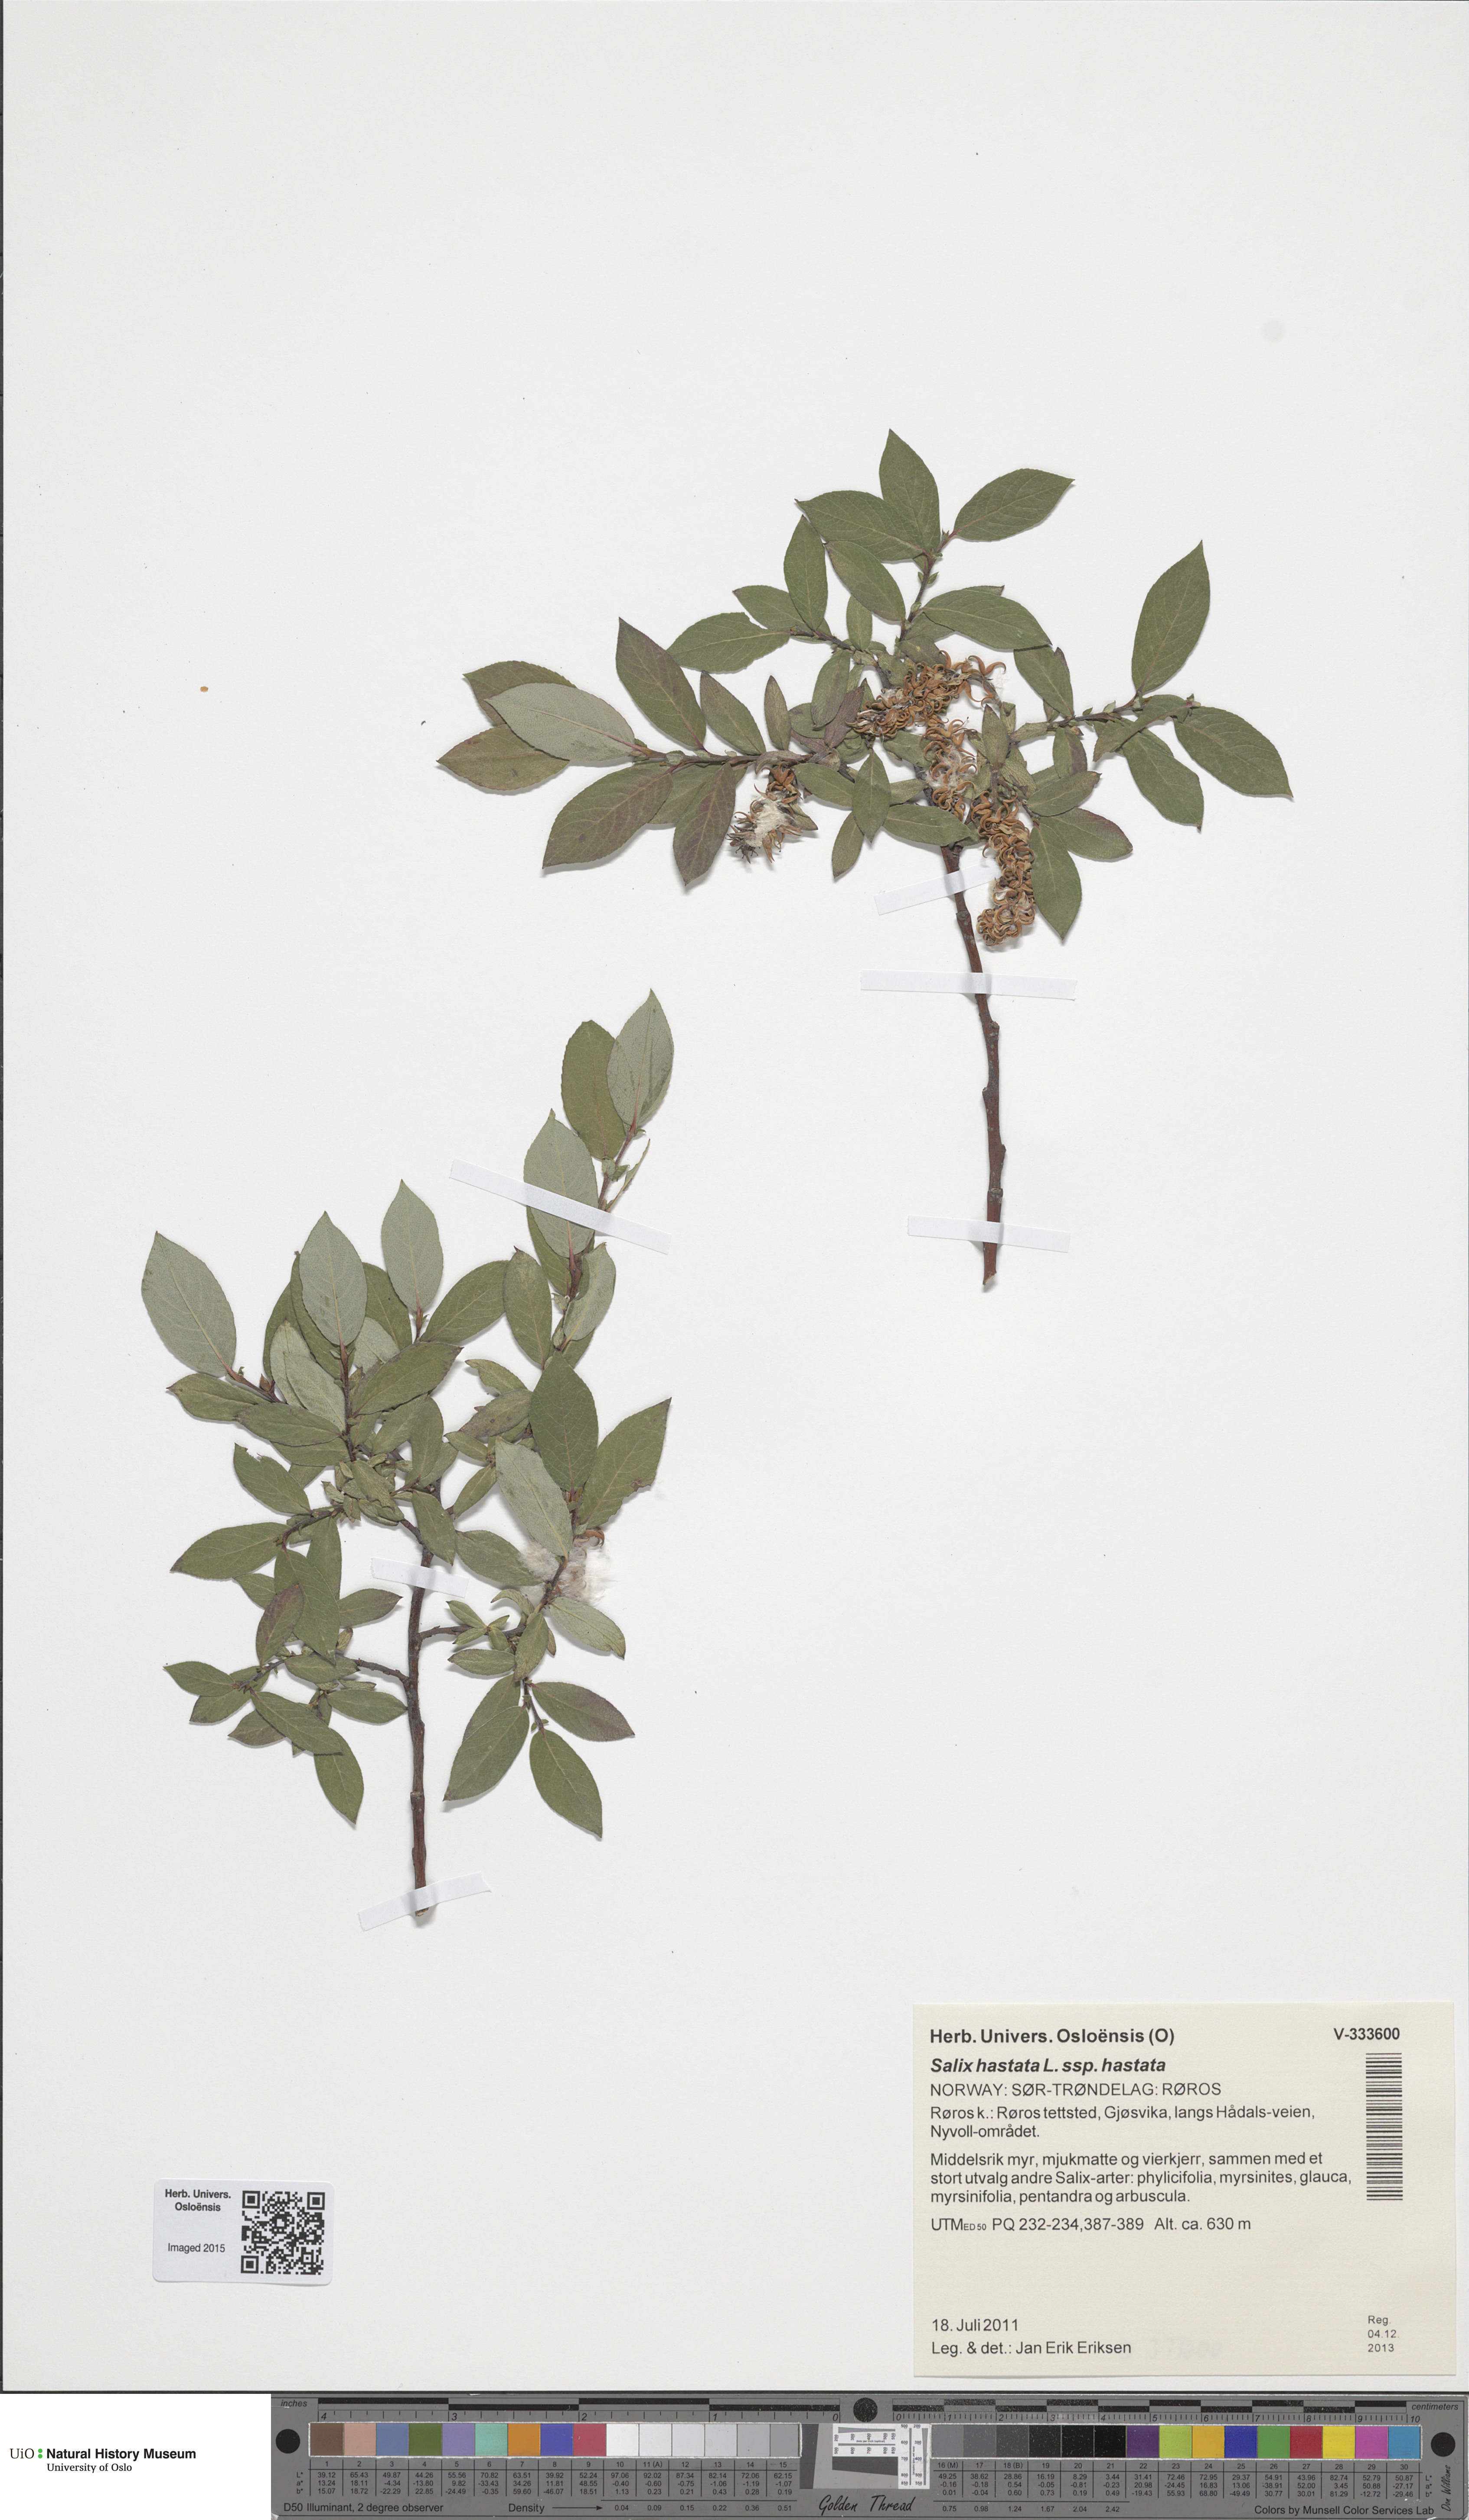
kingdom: Plantae
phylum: Tracheophyta
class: Magnoliopsida
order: Malpighiales
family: Salicaceae
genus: Salix
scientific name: Salix hastata
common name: Halberd willow
